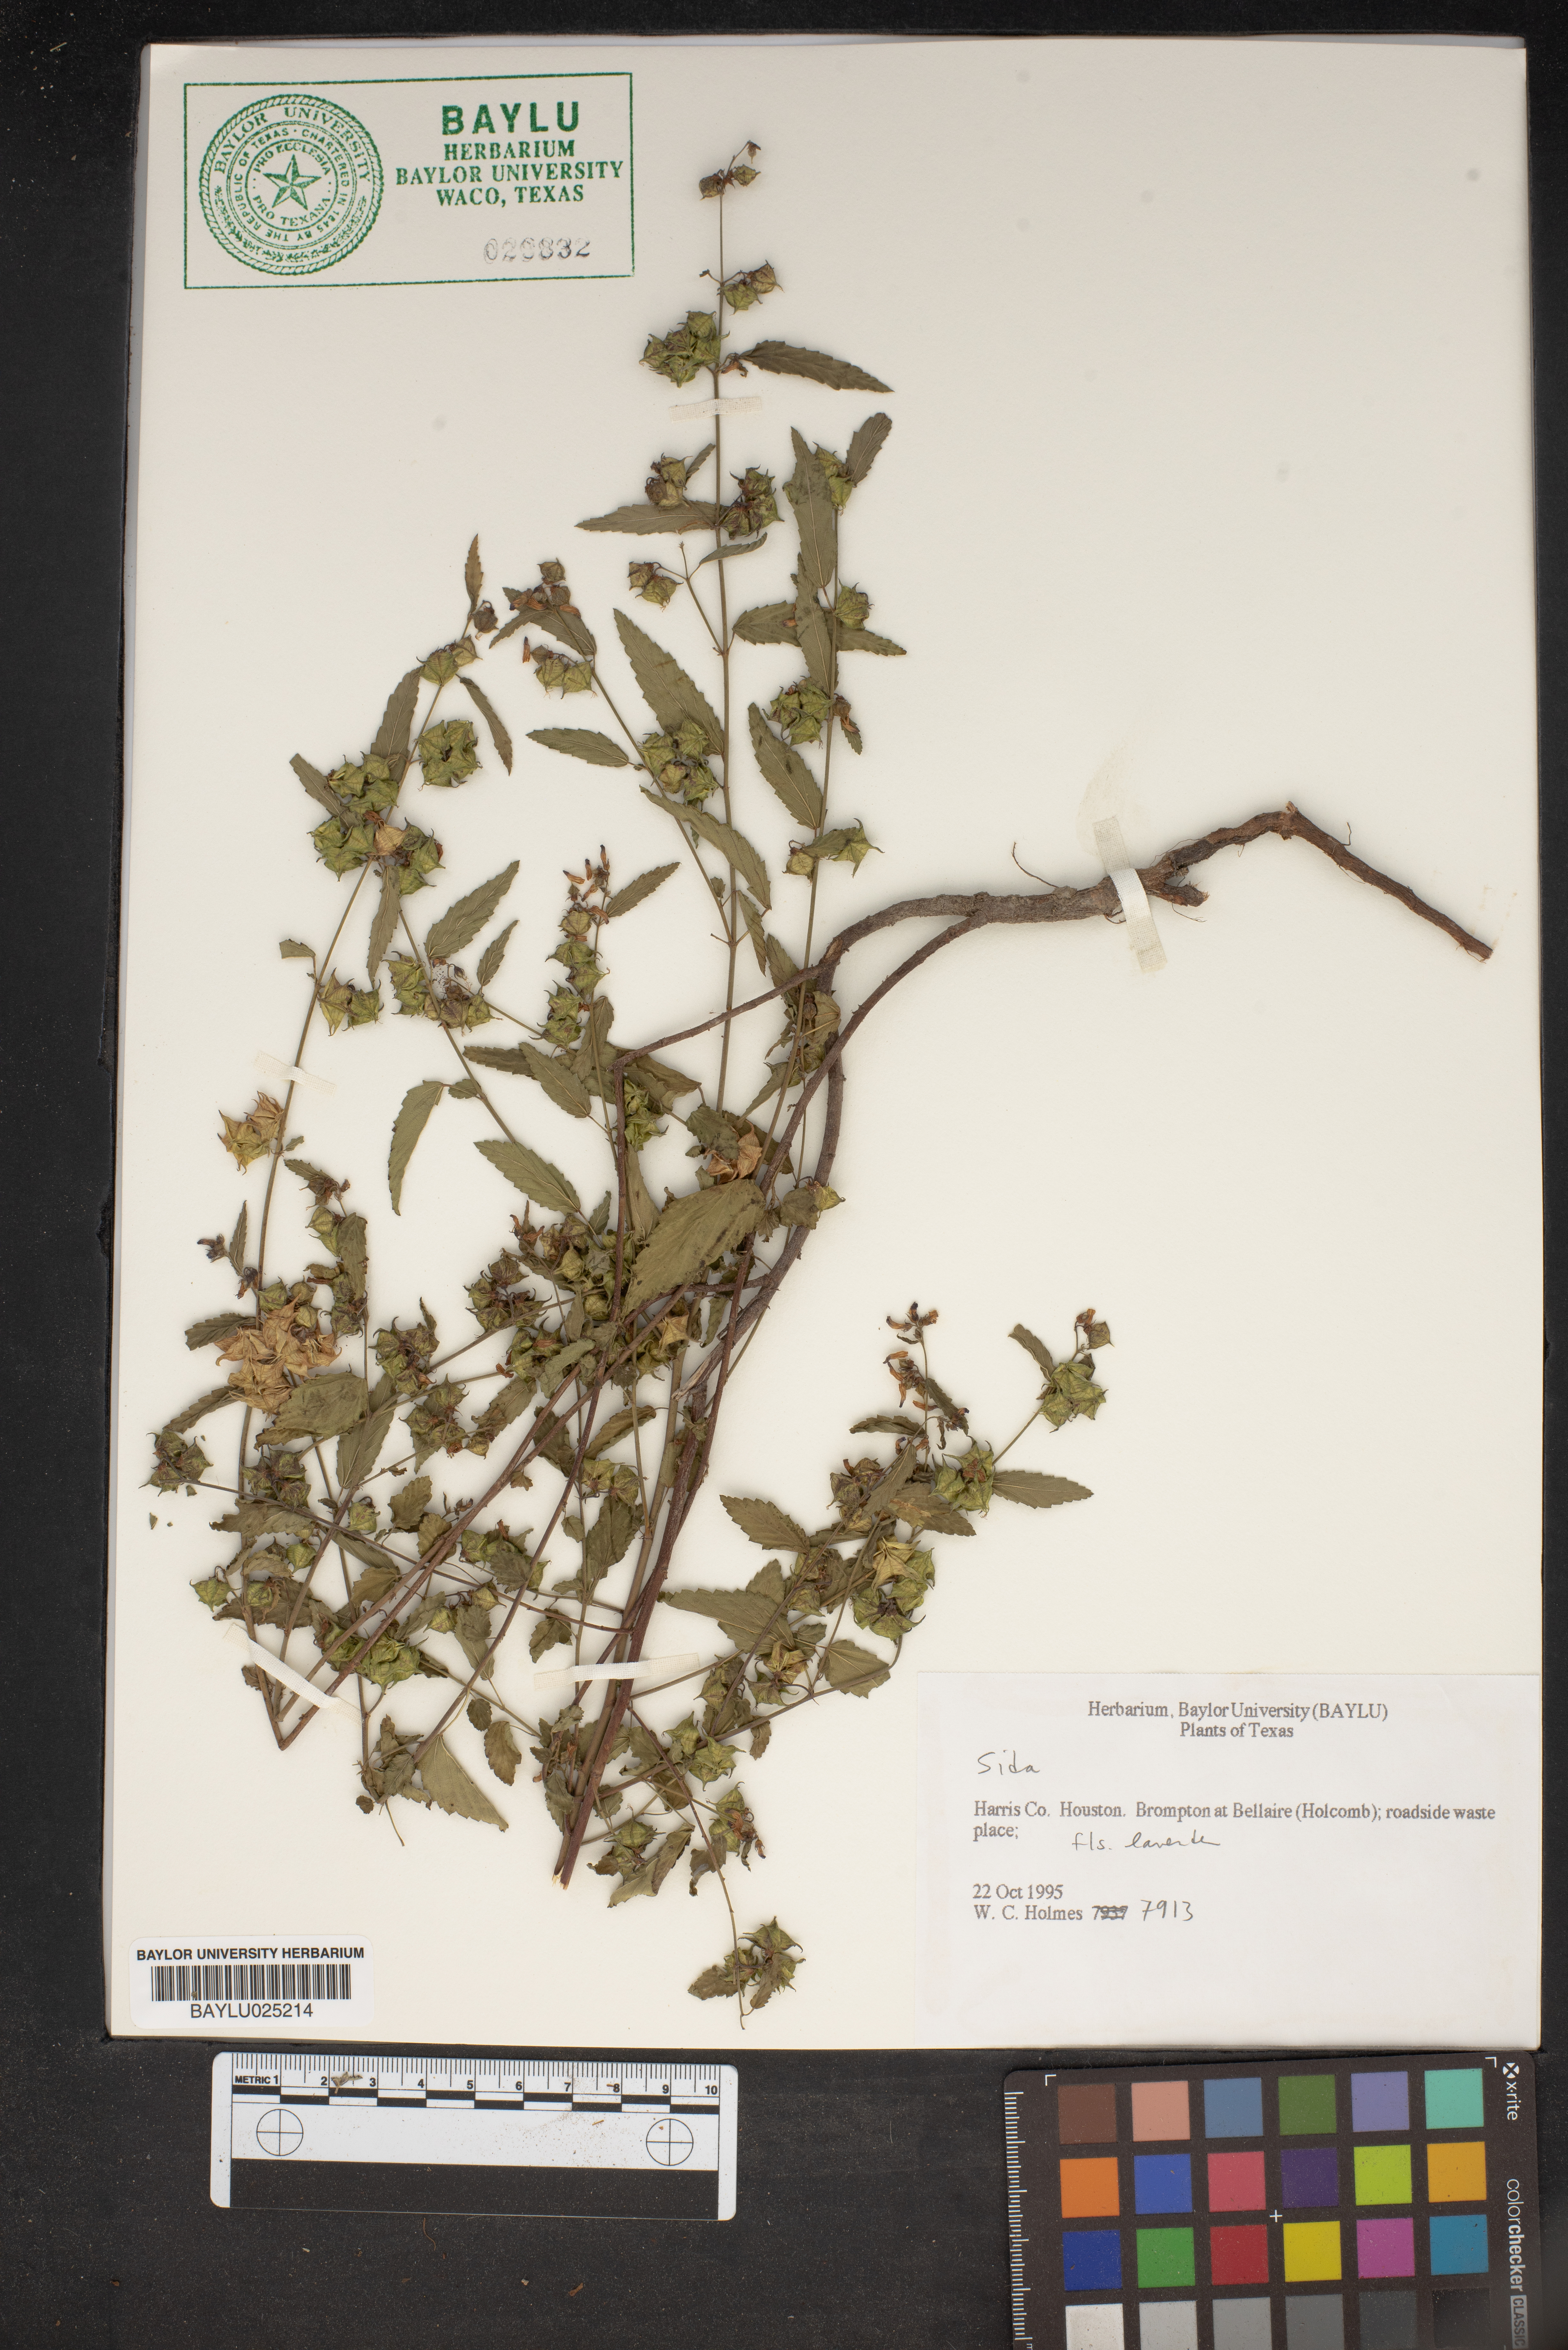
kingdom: Plantae
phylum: Tracheophyta
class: Magnoliopsida
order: Malvales
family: Malvaceae
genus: Sida
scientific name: Sida
